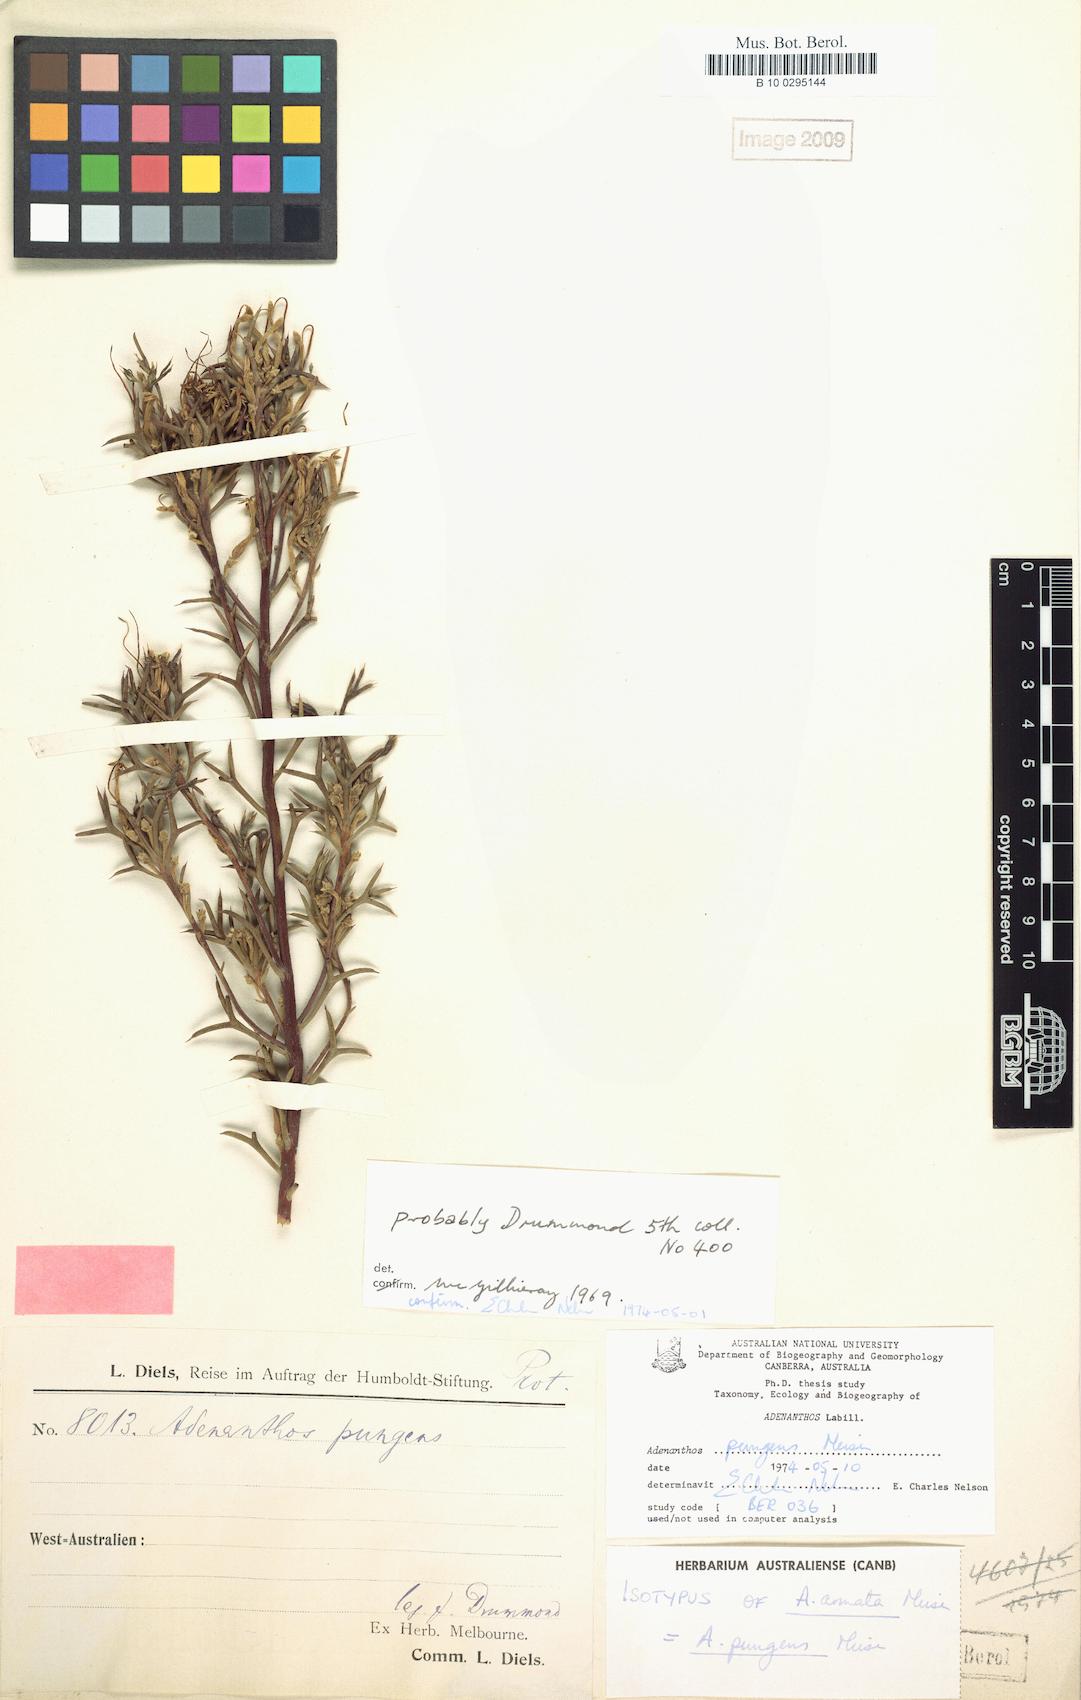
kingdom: Plantae
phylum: Tracheophyta
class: Magnoliopsida
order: Proteales
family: Proteaceae
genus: Adenanthos
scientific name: Adenanthos pungens
